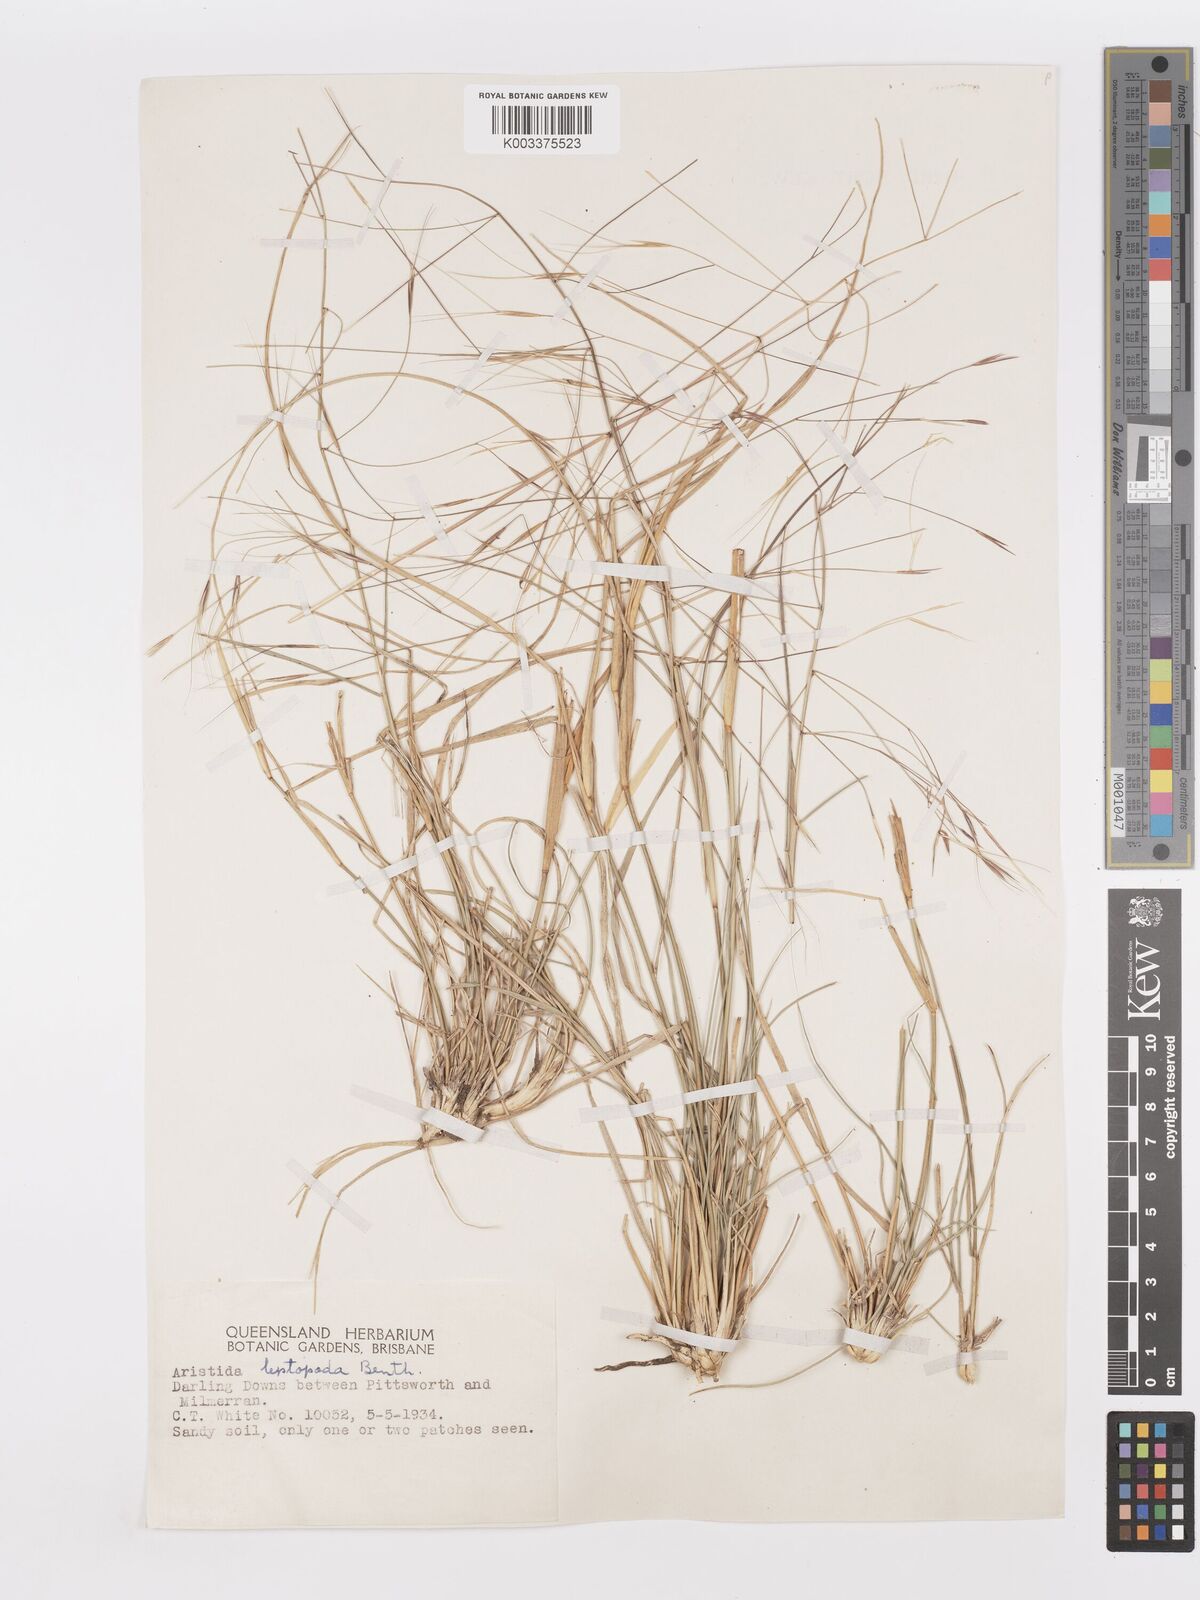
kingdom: Plantae
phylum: Tracheophyta
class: Liliopsida
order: Poales
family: Poaceae
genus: Aristida
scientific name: Aristida leptopoda
